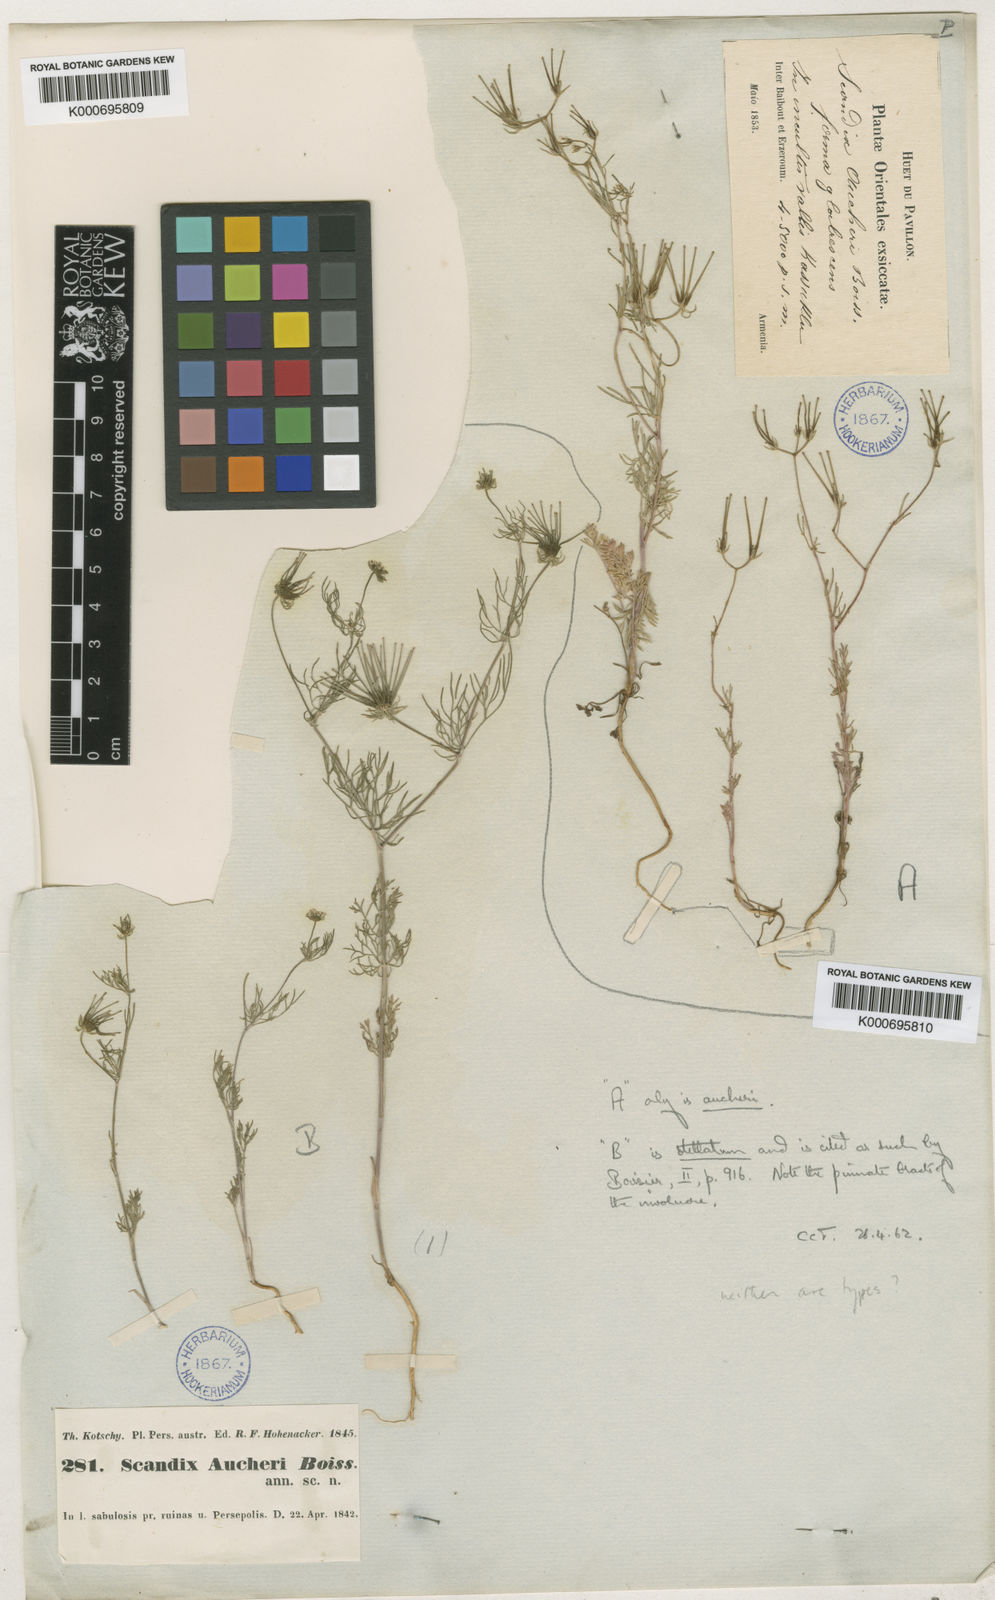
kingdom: Plantae
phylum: Tracheophyta
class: Magnoliopsida
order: Apiales
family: Apiaceae
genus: Scandix
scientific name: Scandix aucheri
